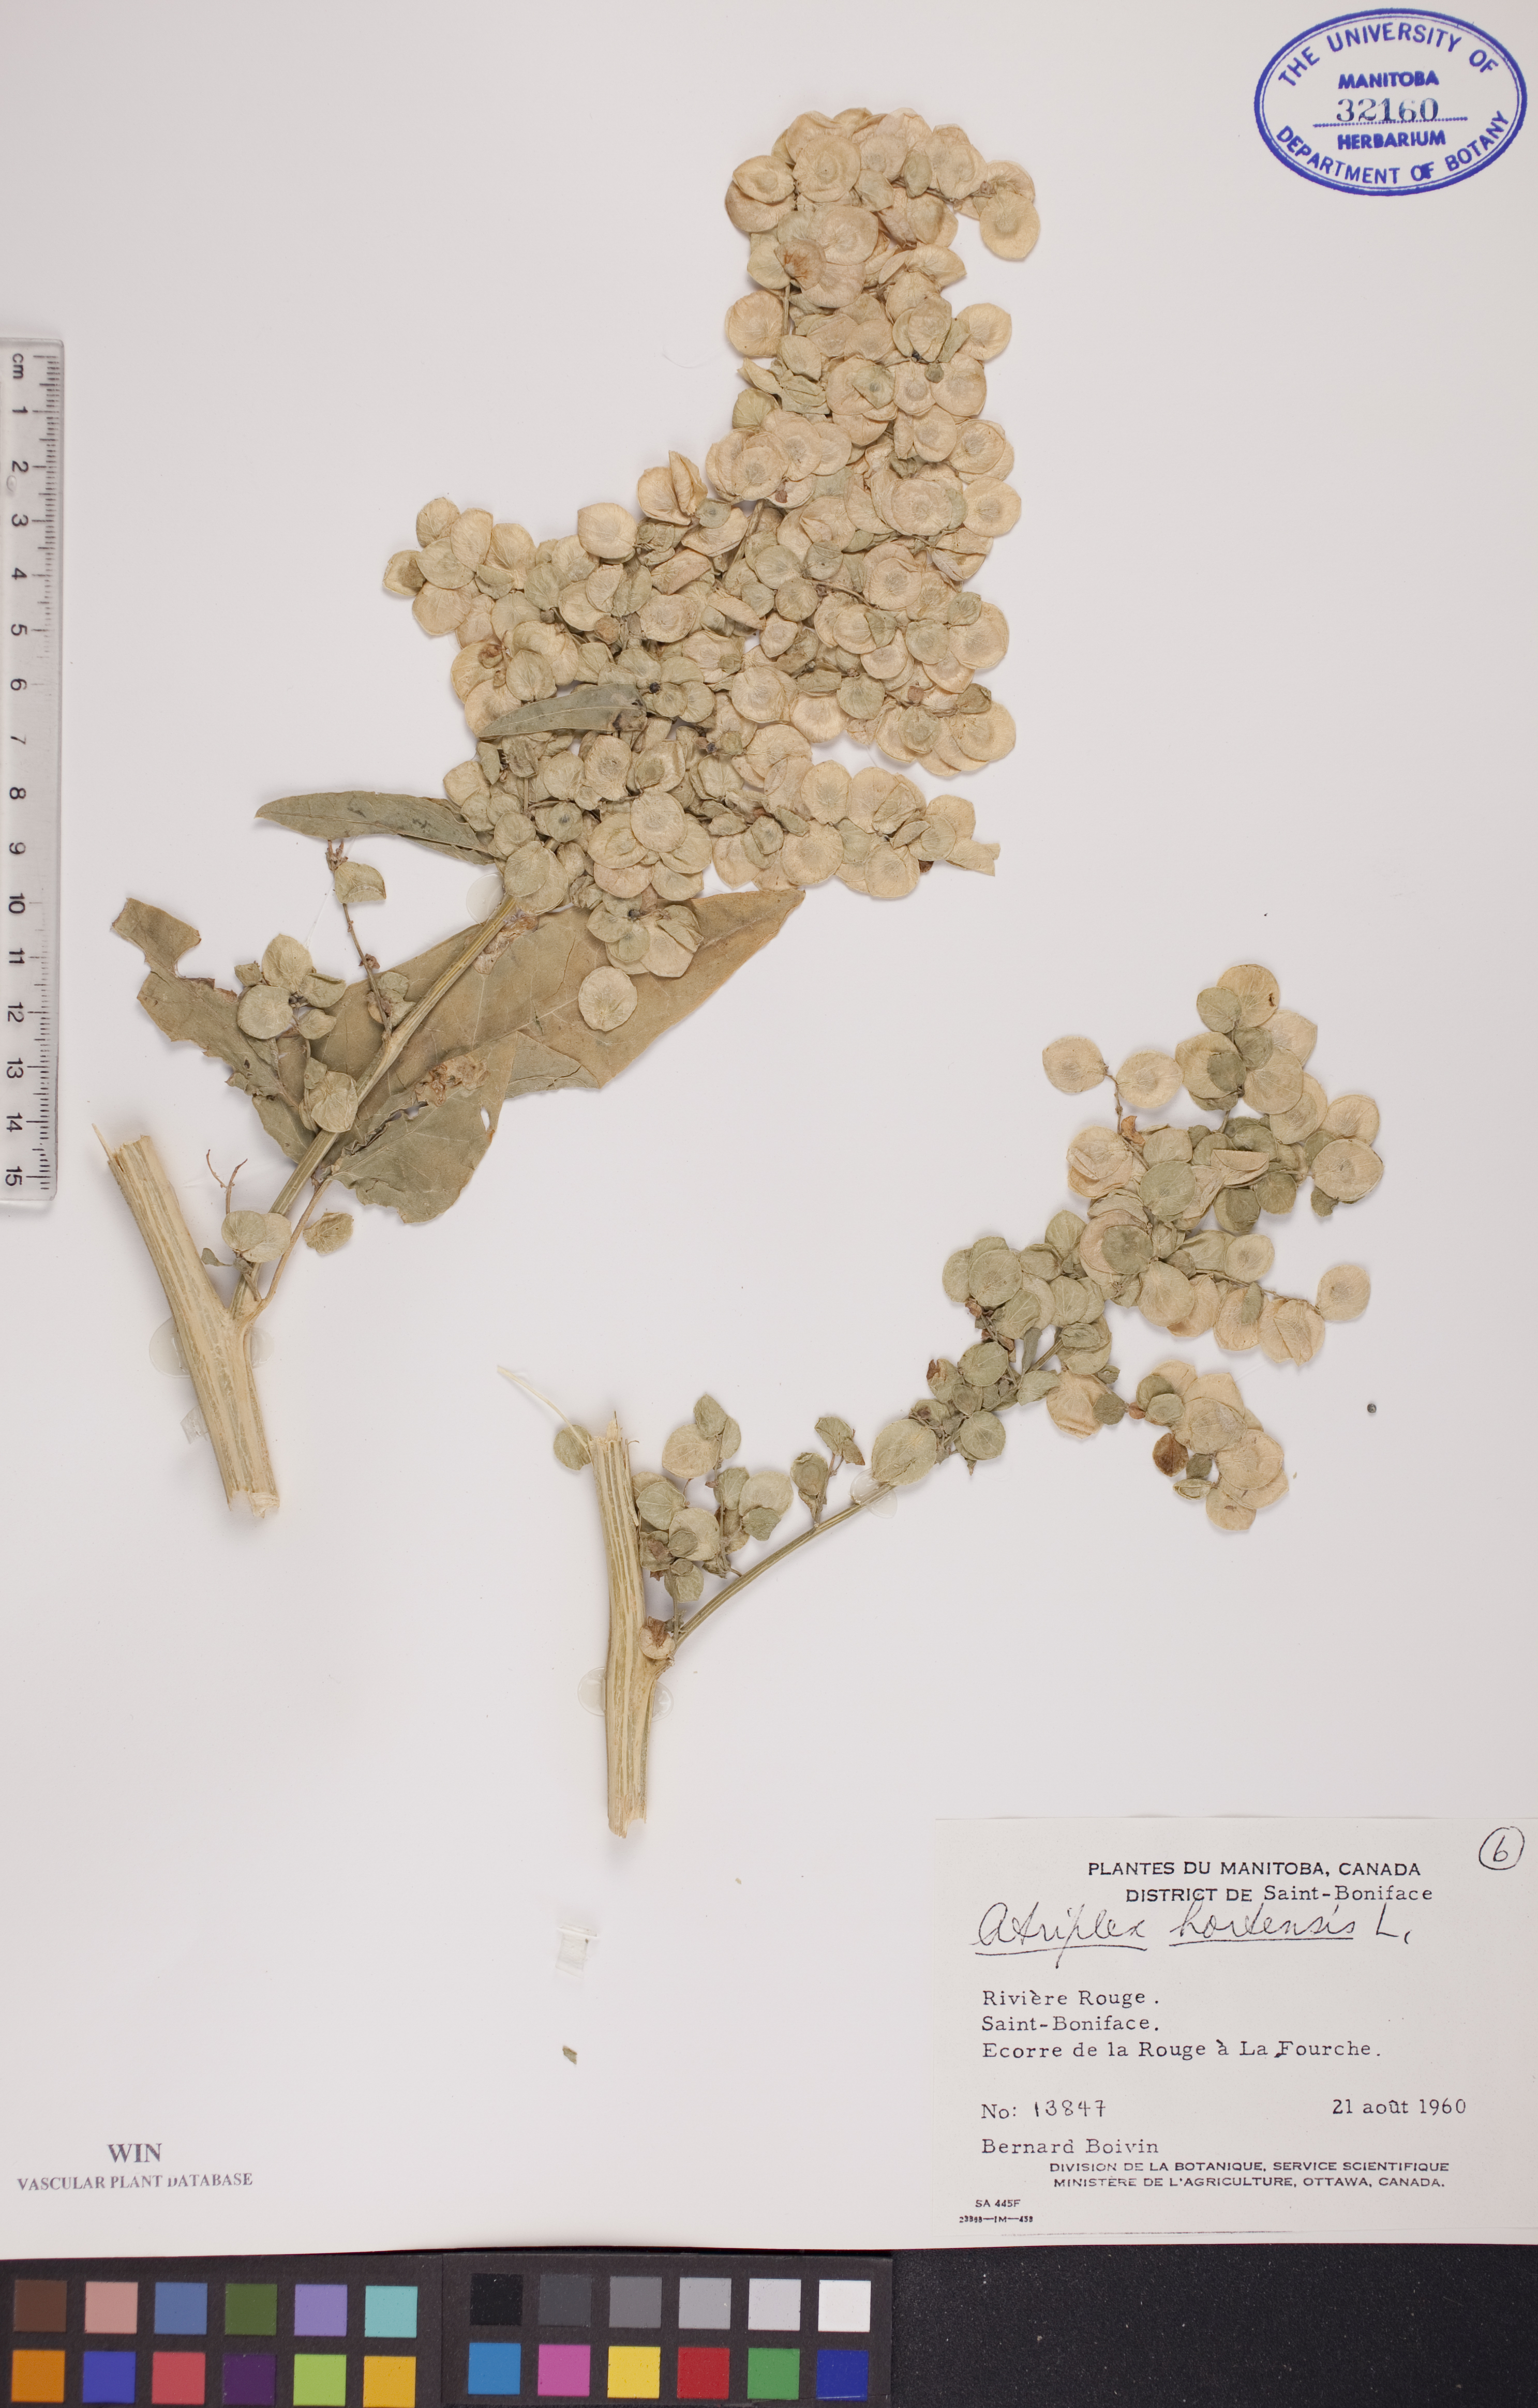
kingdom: Plantae
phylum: Tracheophyta
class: Magnoliopsida
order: Caryophyllales
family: Amaranthaceae
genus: Atriplex
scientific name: Atriplex hortensis
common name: Garden orache
